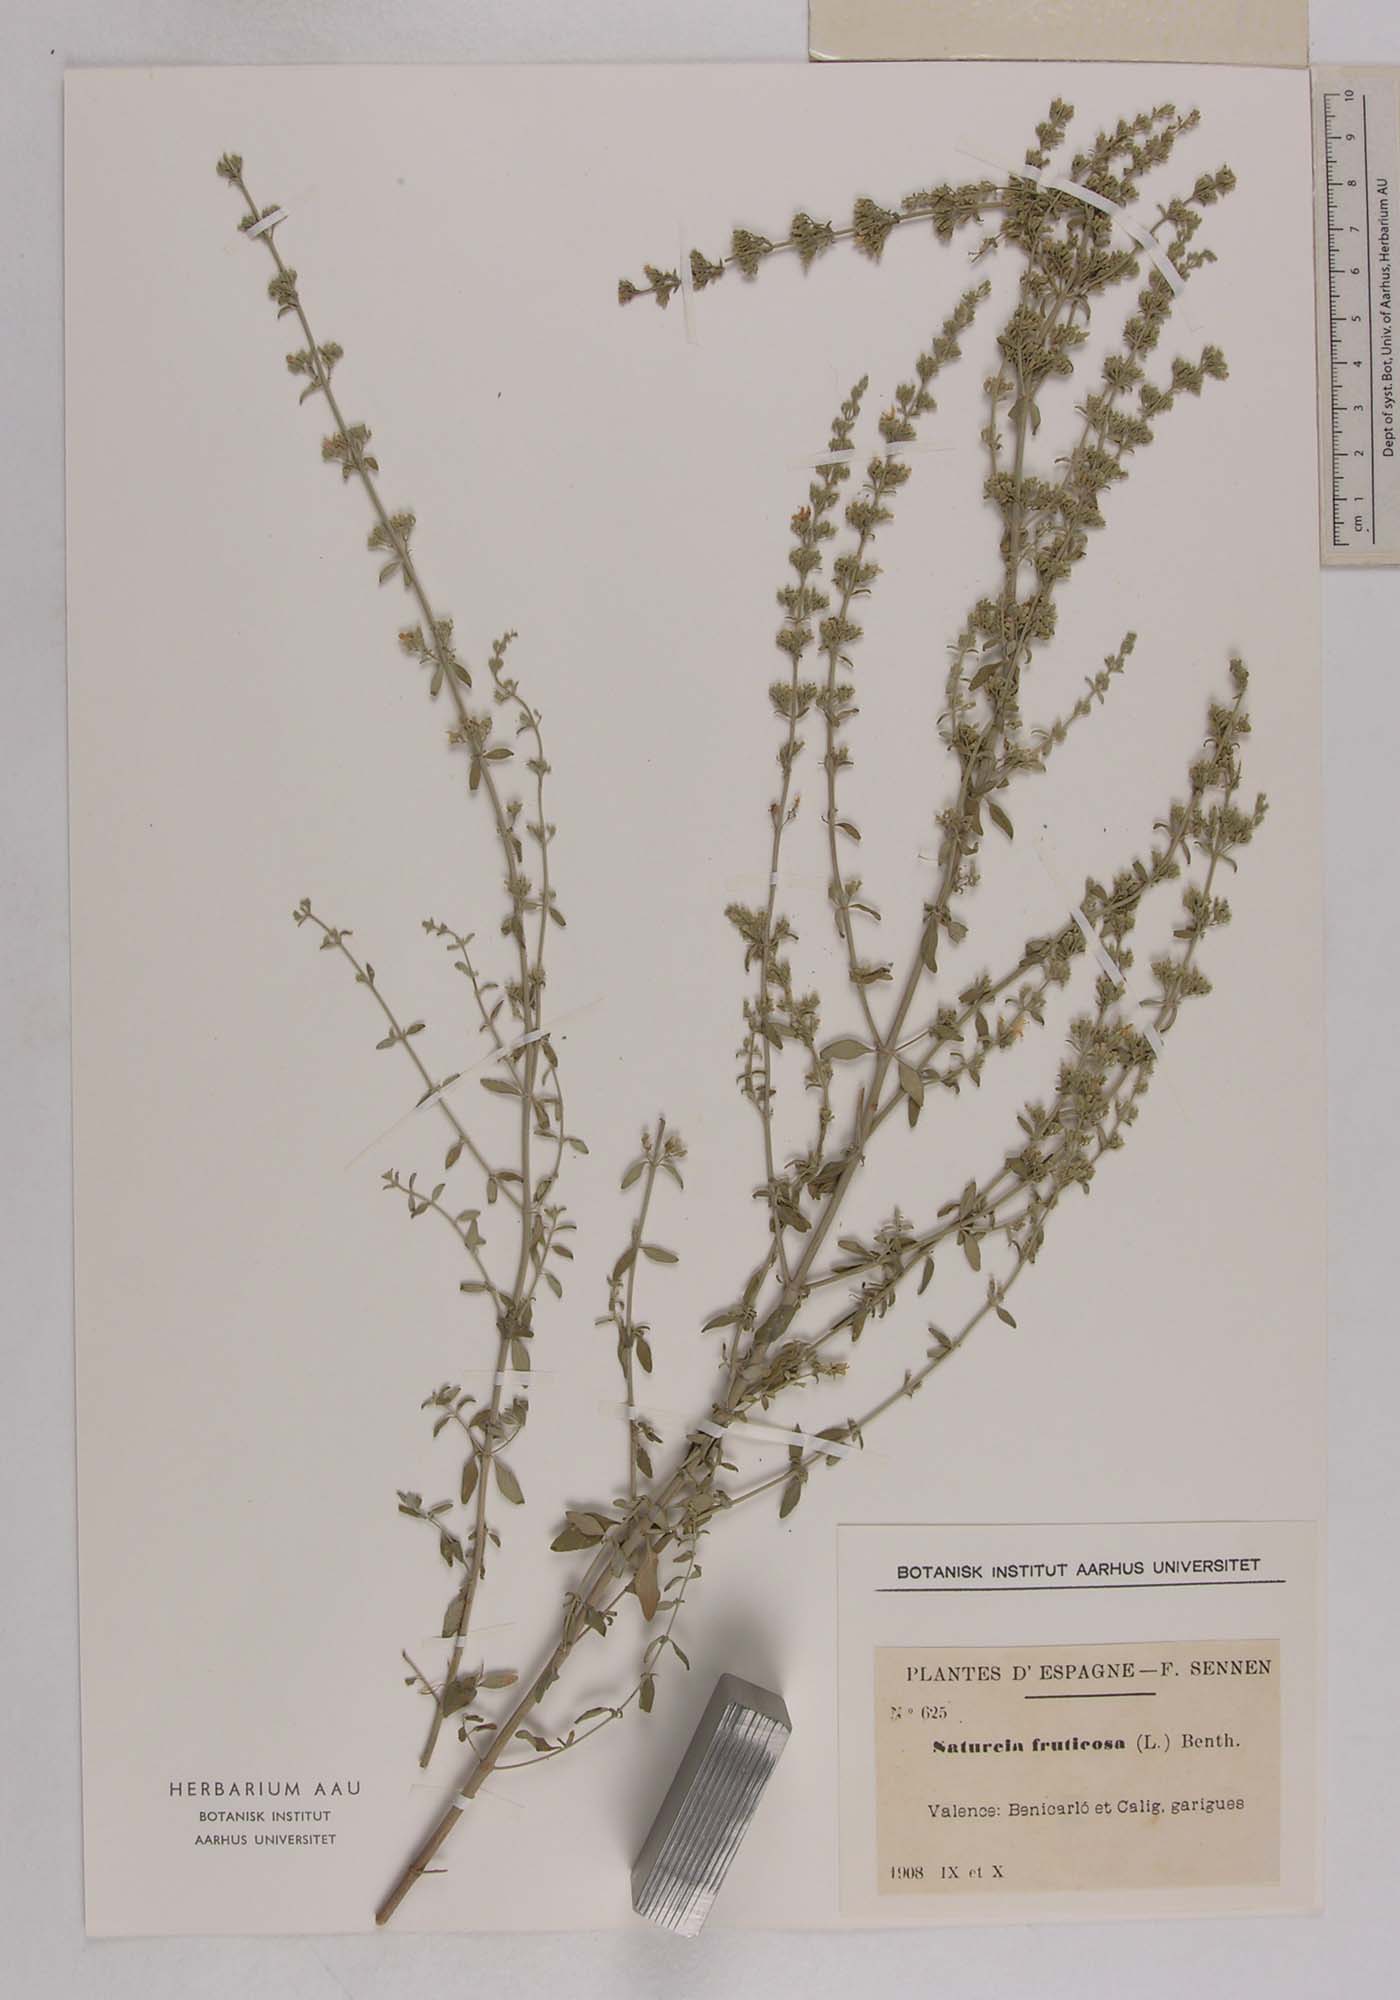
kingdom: Plantae
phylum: Tracheophyta
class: Magnoliopsida
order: Lamiales
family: Lamiaceae
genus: Clinopodium
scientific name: Clinopodium serpyllifolium
